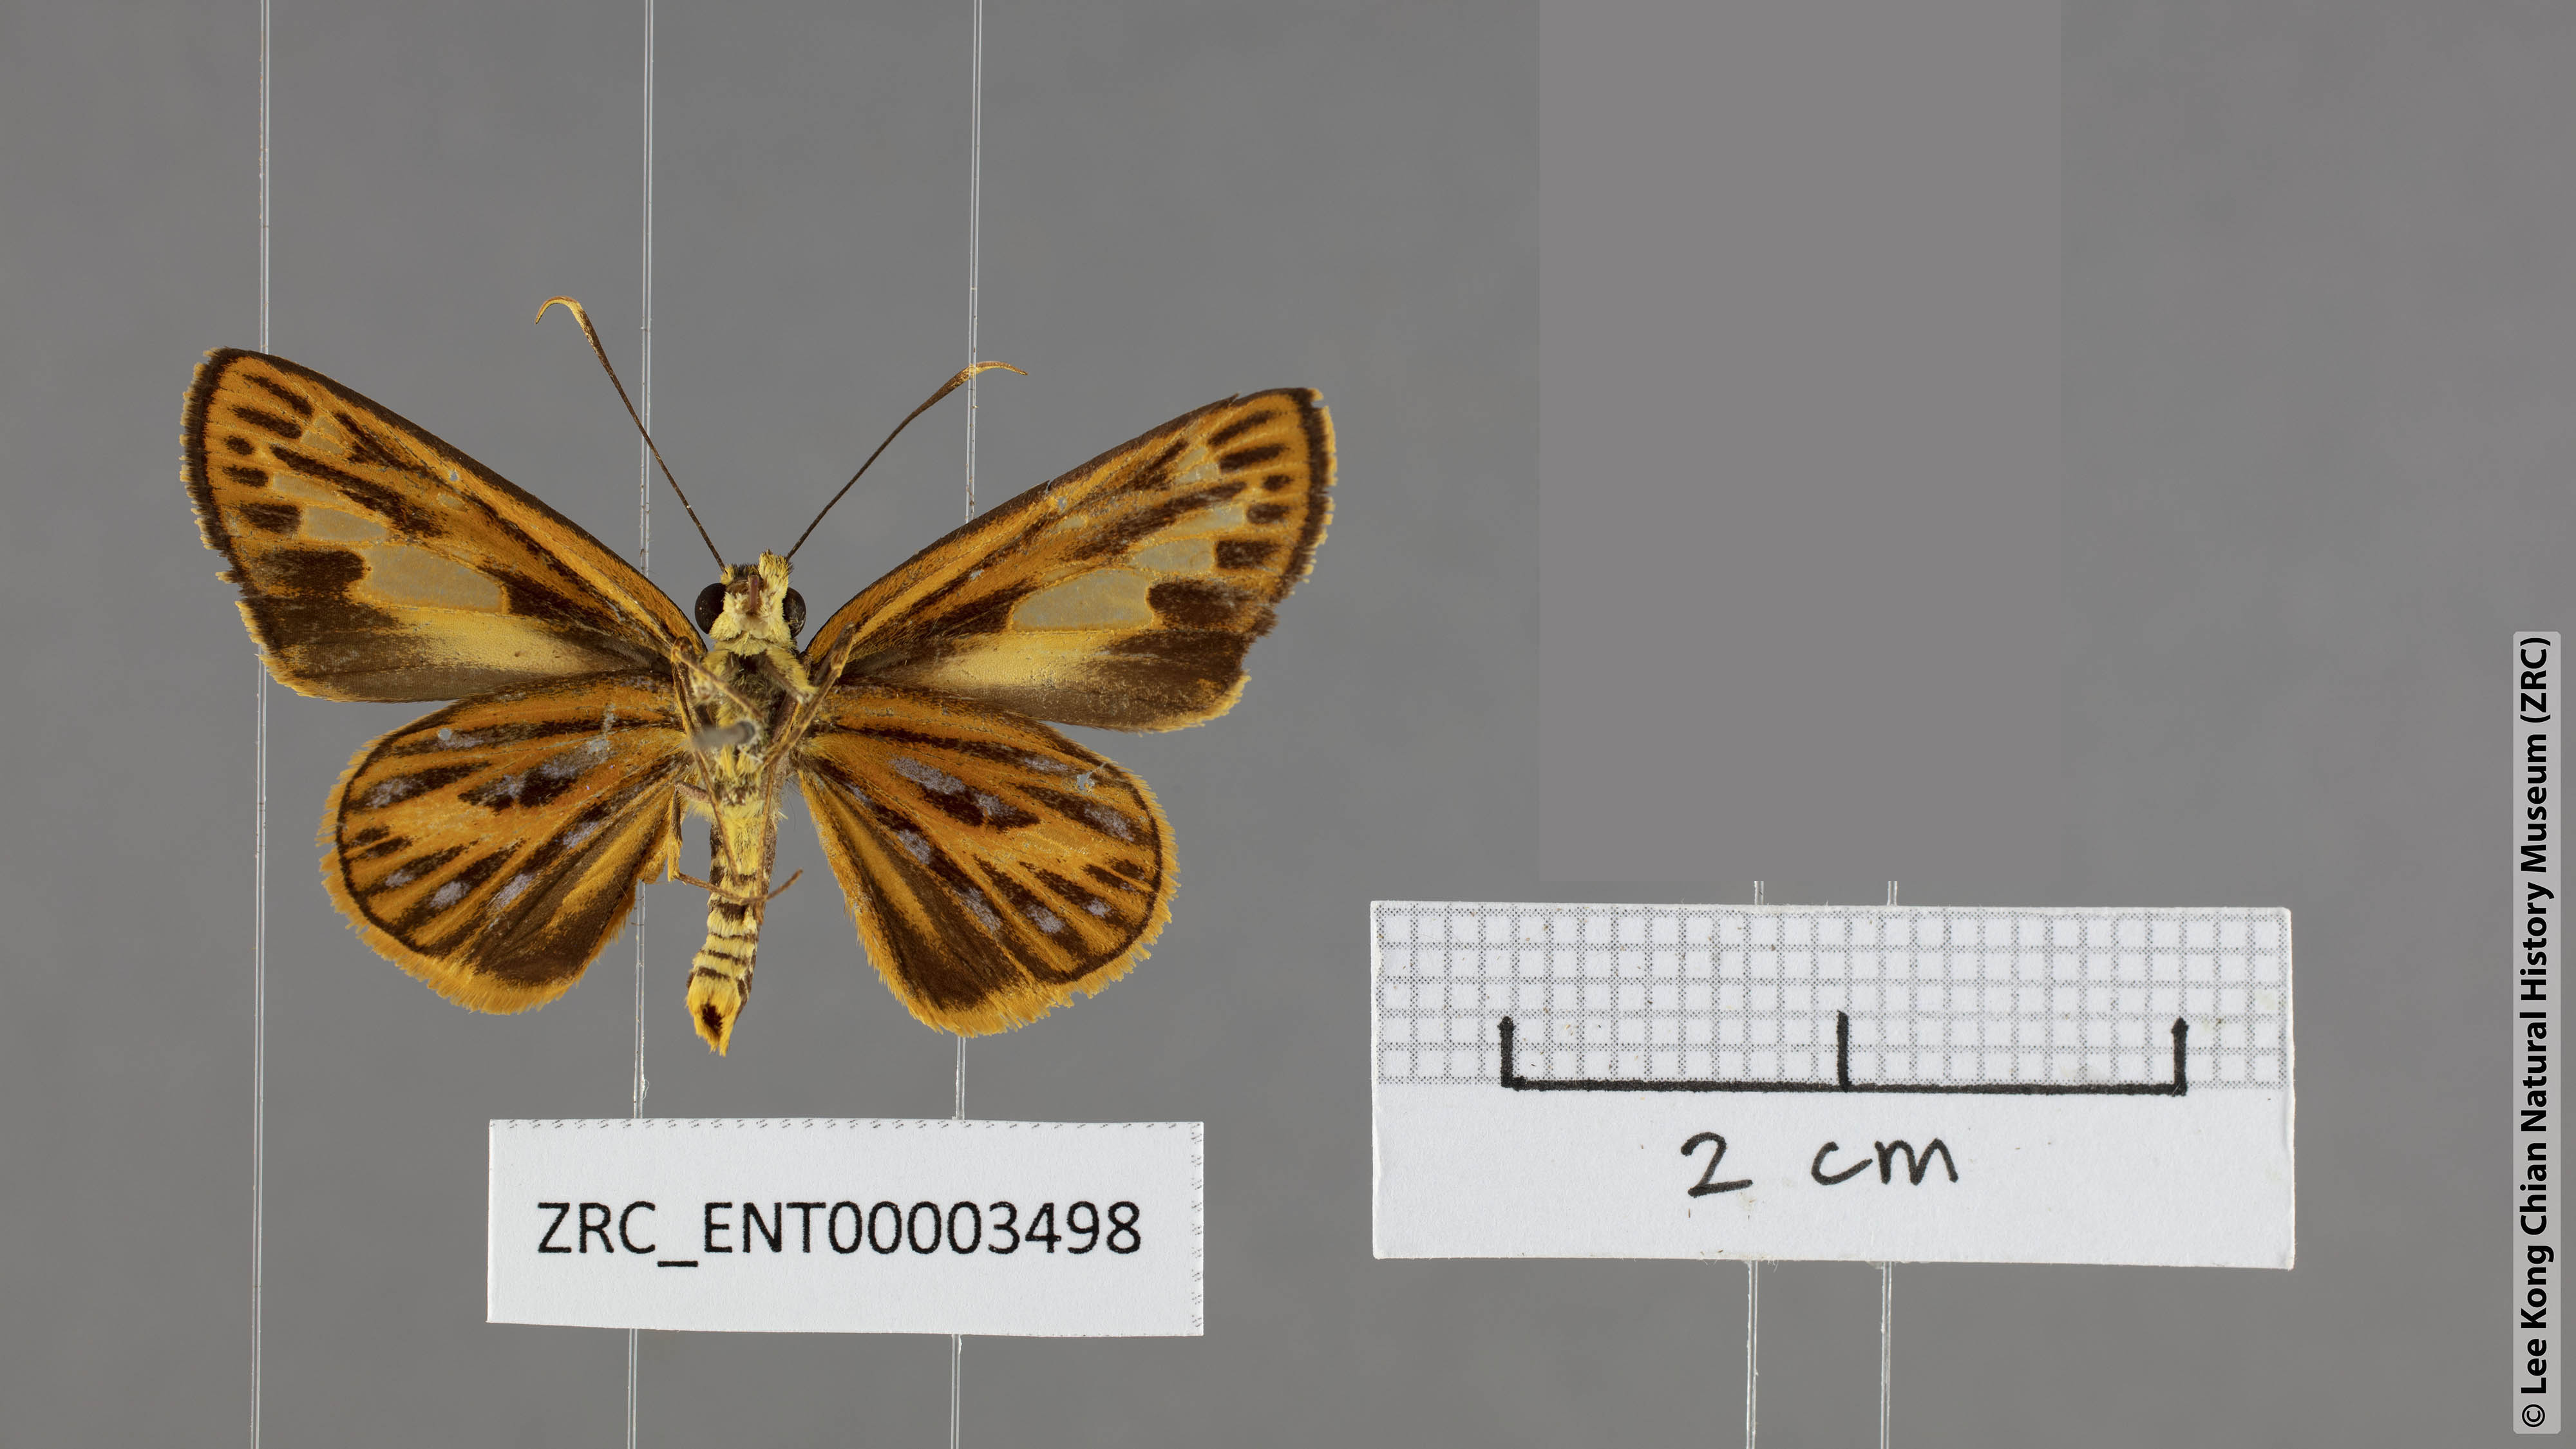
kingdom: Animalia
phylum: Arthropoda
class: Insecta
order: Lepidoptera
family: Hesperiidae
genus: Pyroneura
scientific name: Pyroneura aurantiaca
